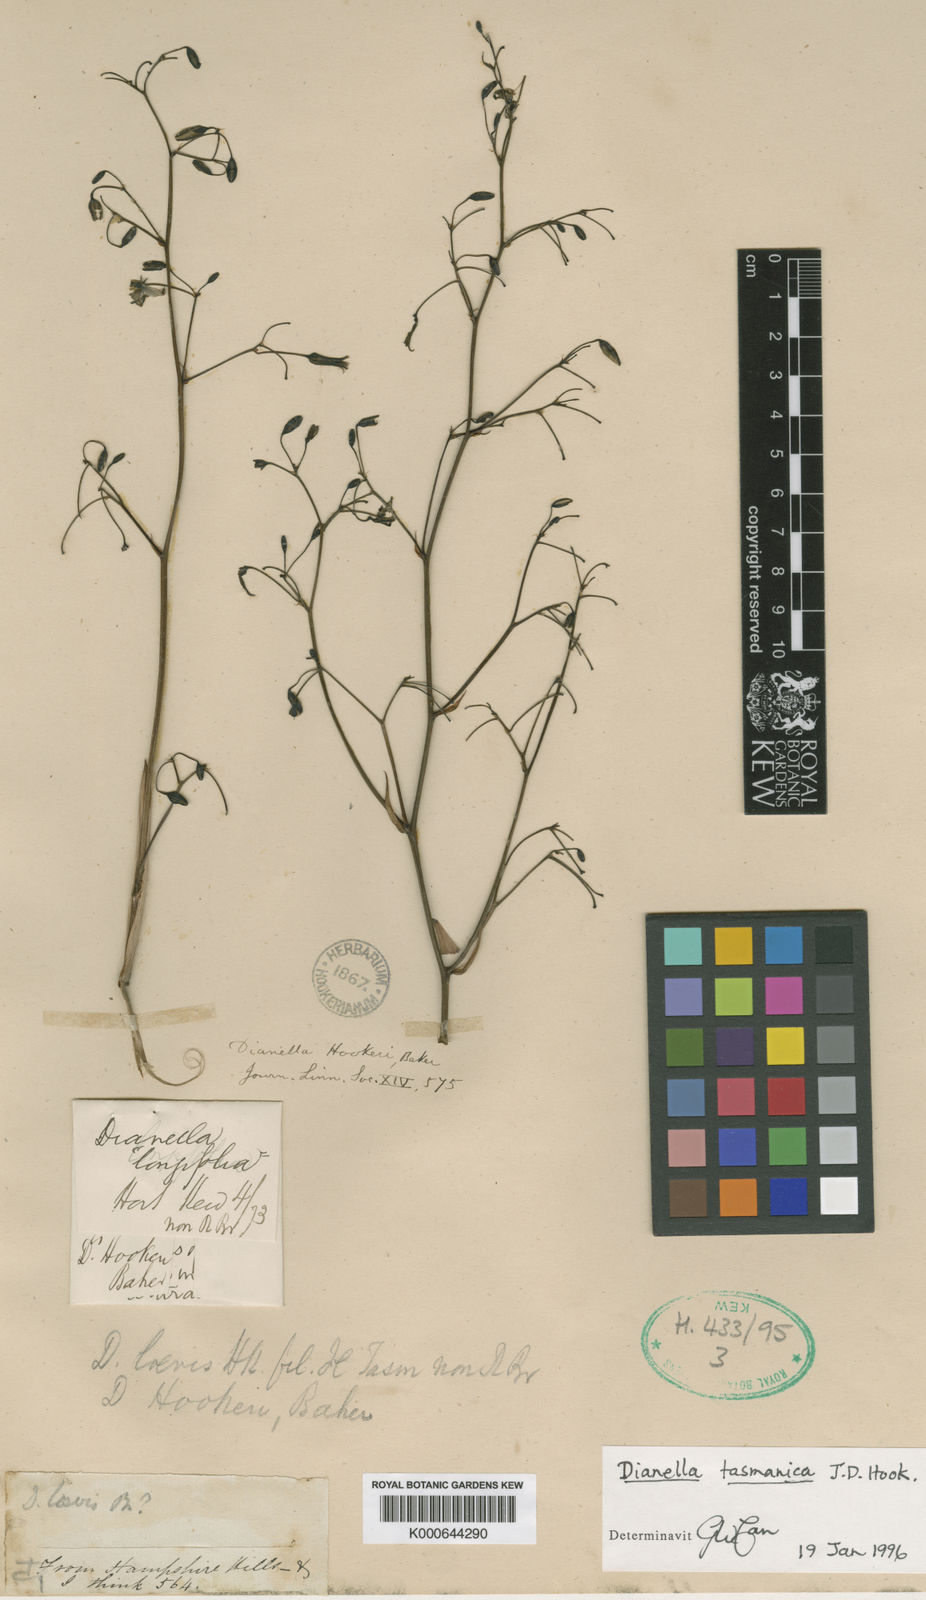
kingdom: Plantae
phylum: Tracheophyta
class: Liliopsida
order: Asparagales
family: Asphodelaceae
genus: Dianella
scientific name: Dianella tasmanica
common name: Tasman flax-lily
